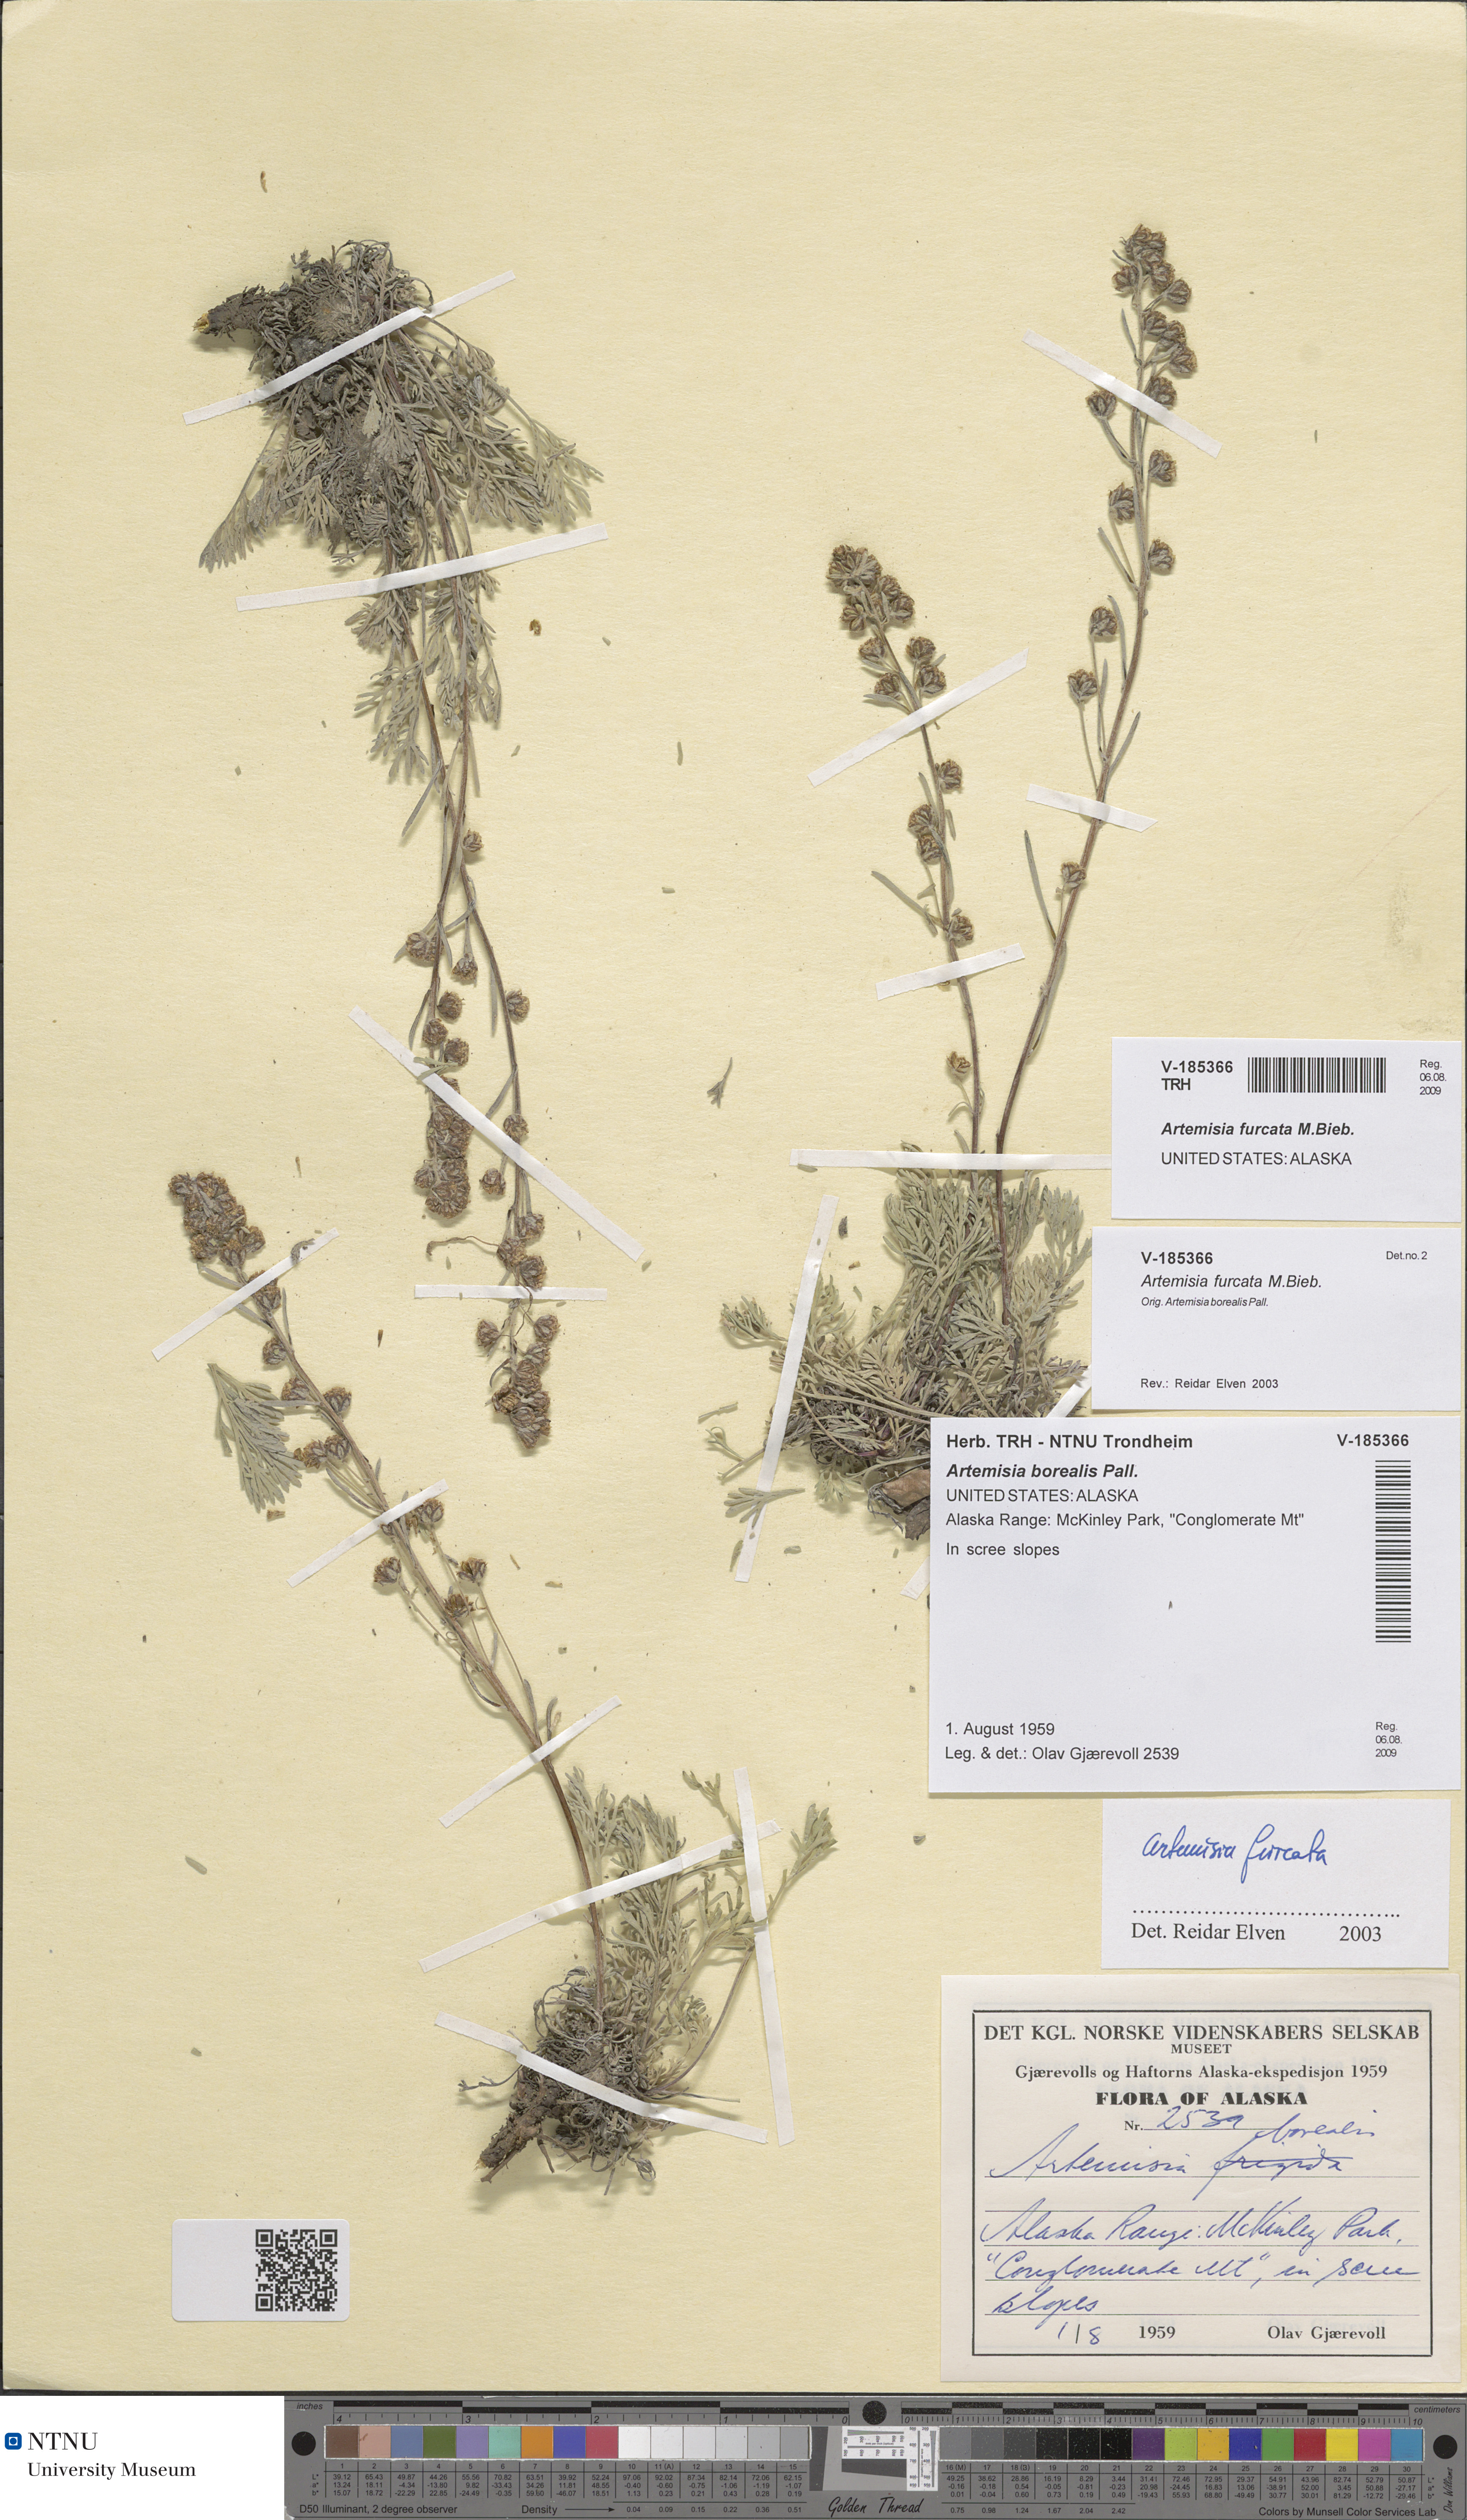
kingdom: Plantae
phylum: Tracheophyta
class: Magnoliopsida
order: Asterales
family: Asteraceae
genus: Artemisia
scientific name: Artemisia furcata
